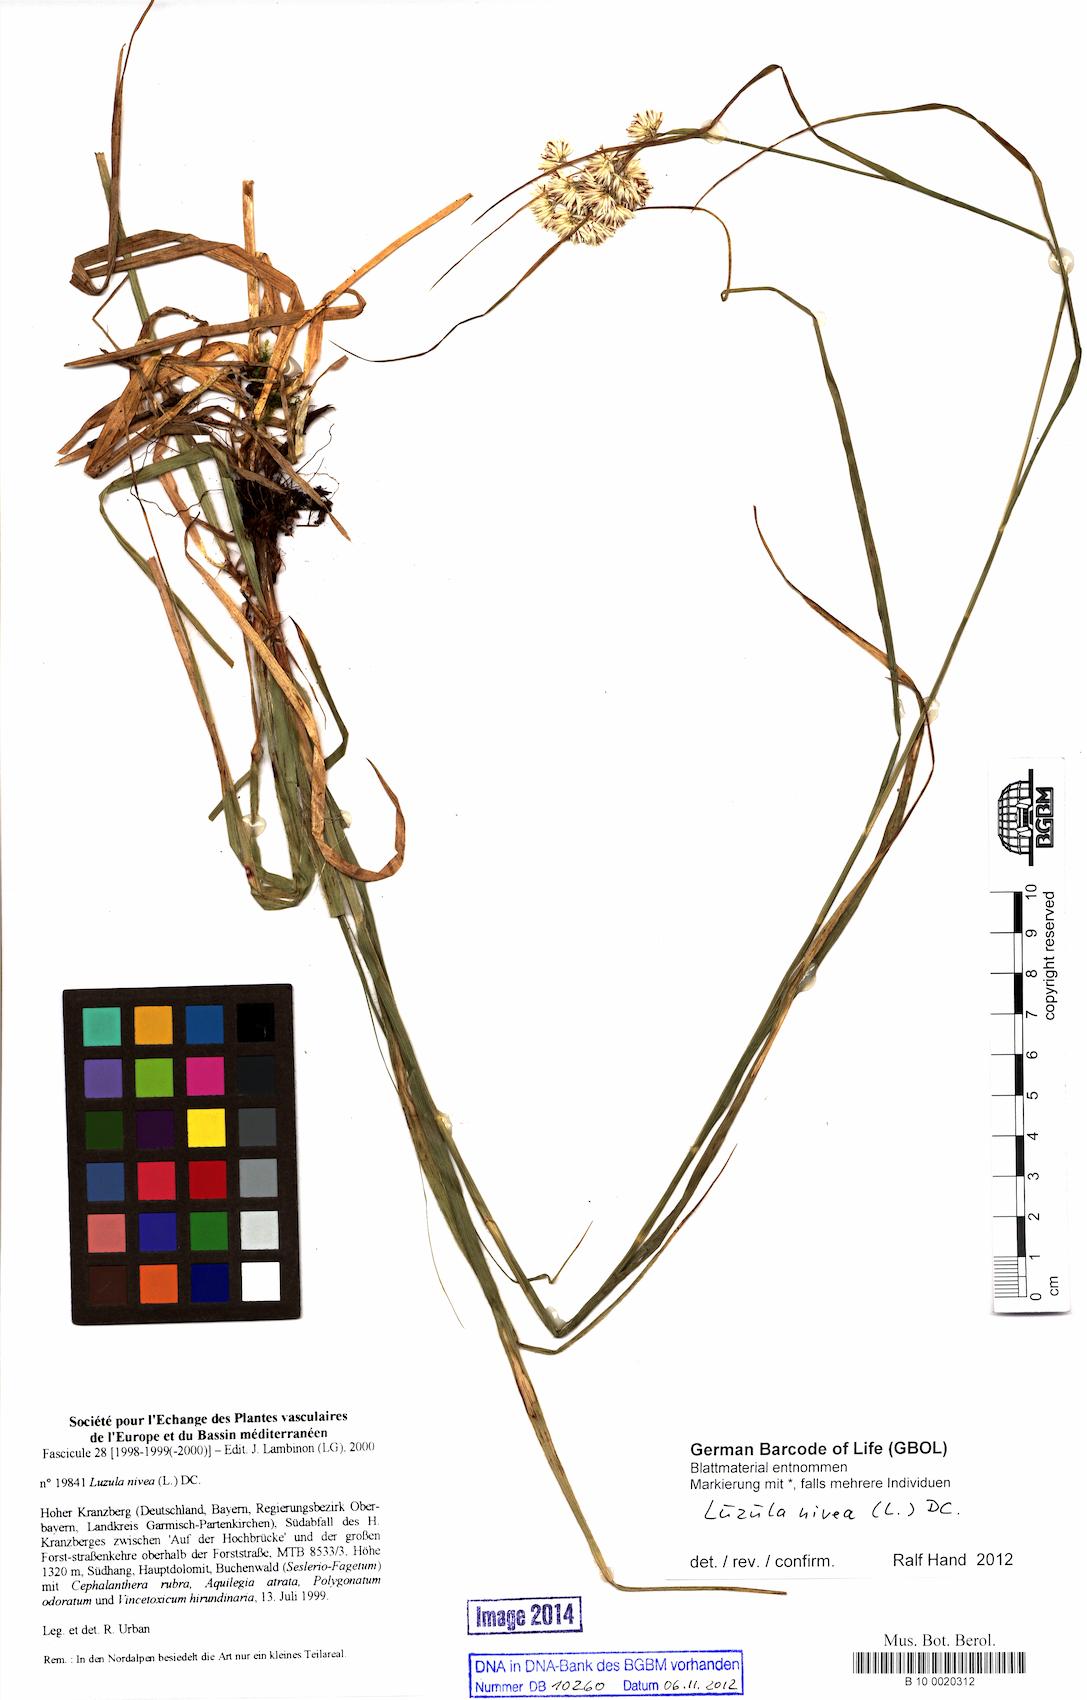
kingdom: Plantae
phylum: Tracheophyta
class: Liliopsida
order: Poales
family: Juncaceae
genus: Luzula
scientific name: Luzula nivea
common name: Snow-white wood-rush
